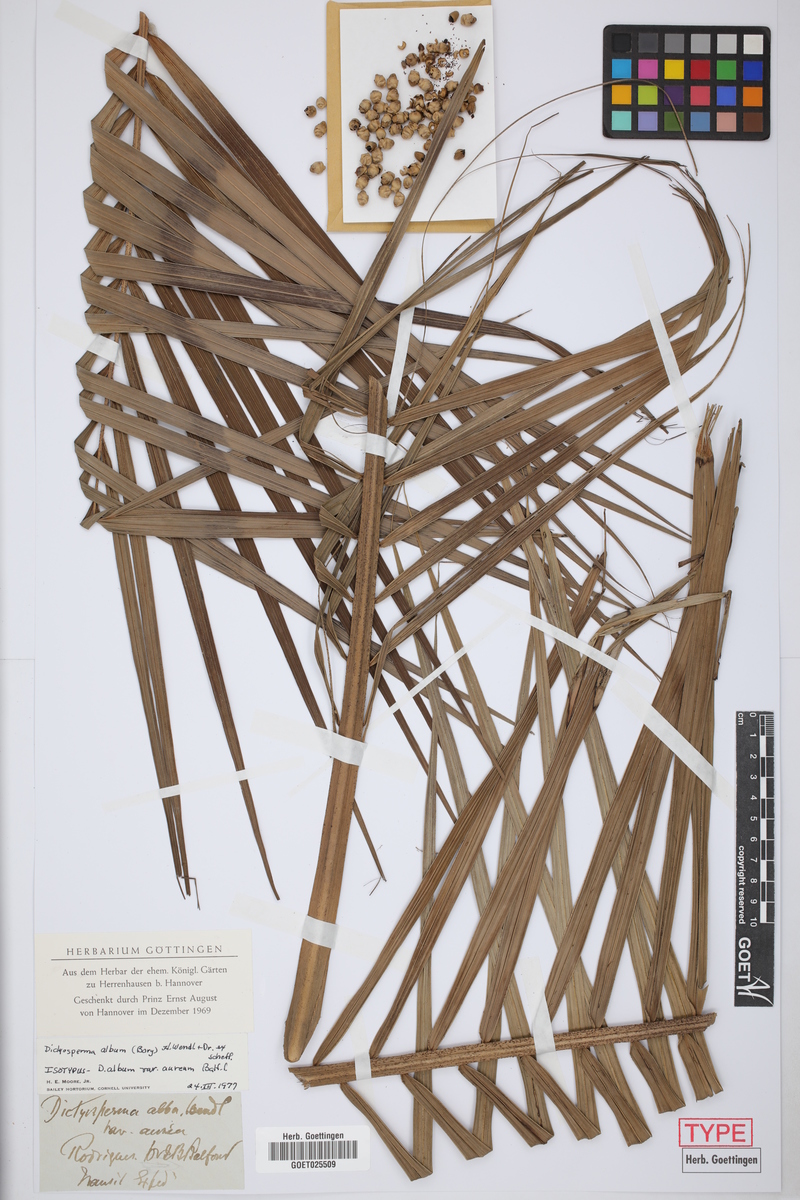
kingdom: Plantae
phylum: Tracheophyta
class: Liliopsida
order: Arecales
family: Arecaceae
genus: Dictyosperma
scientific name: Dictyosperma album
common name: Common princess palm
